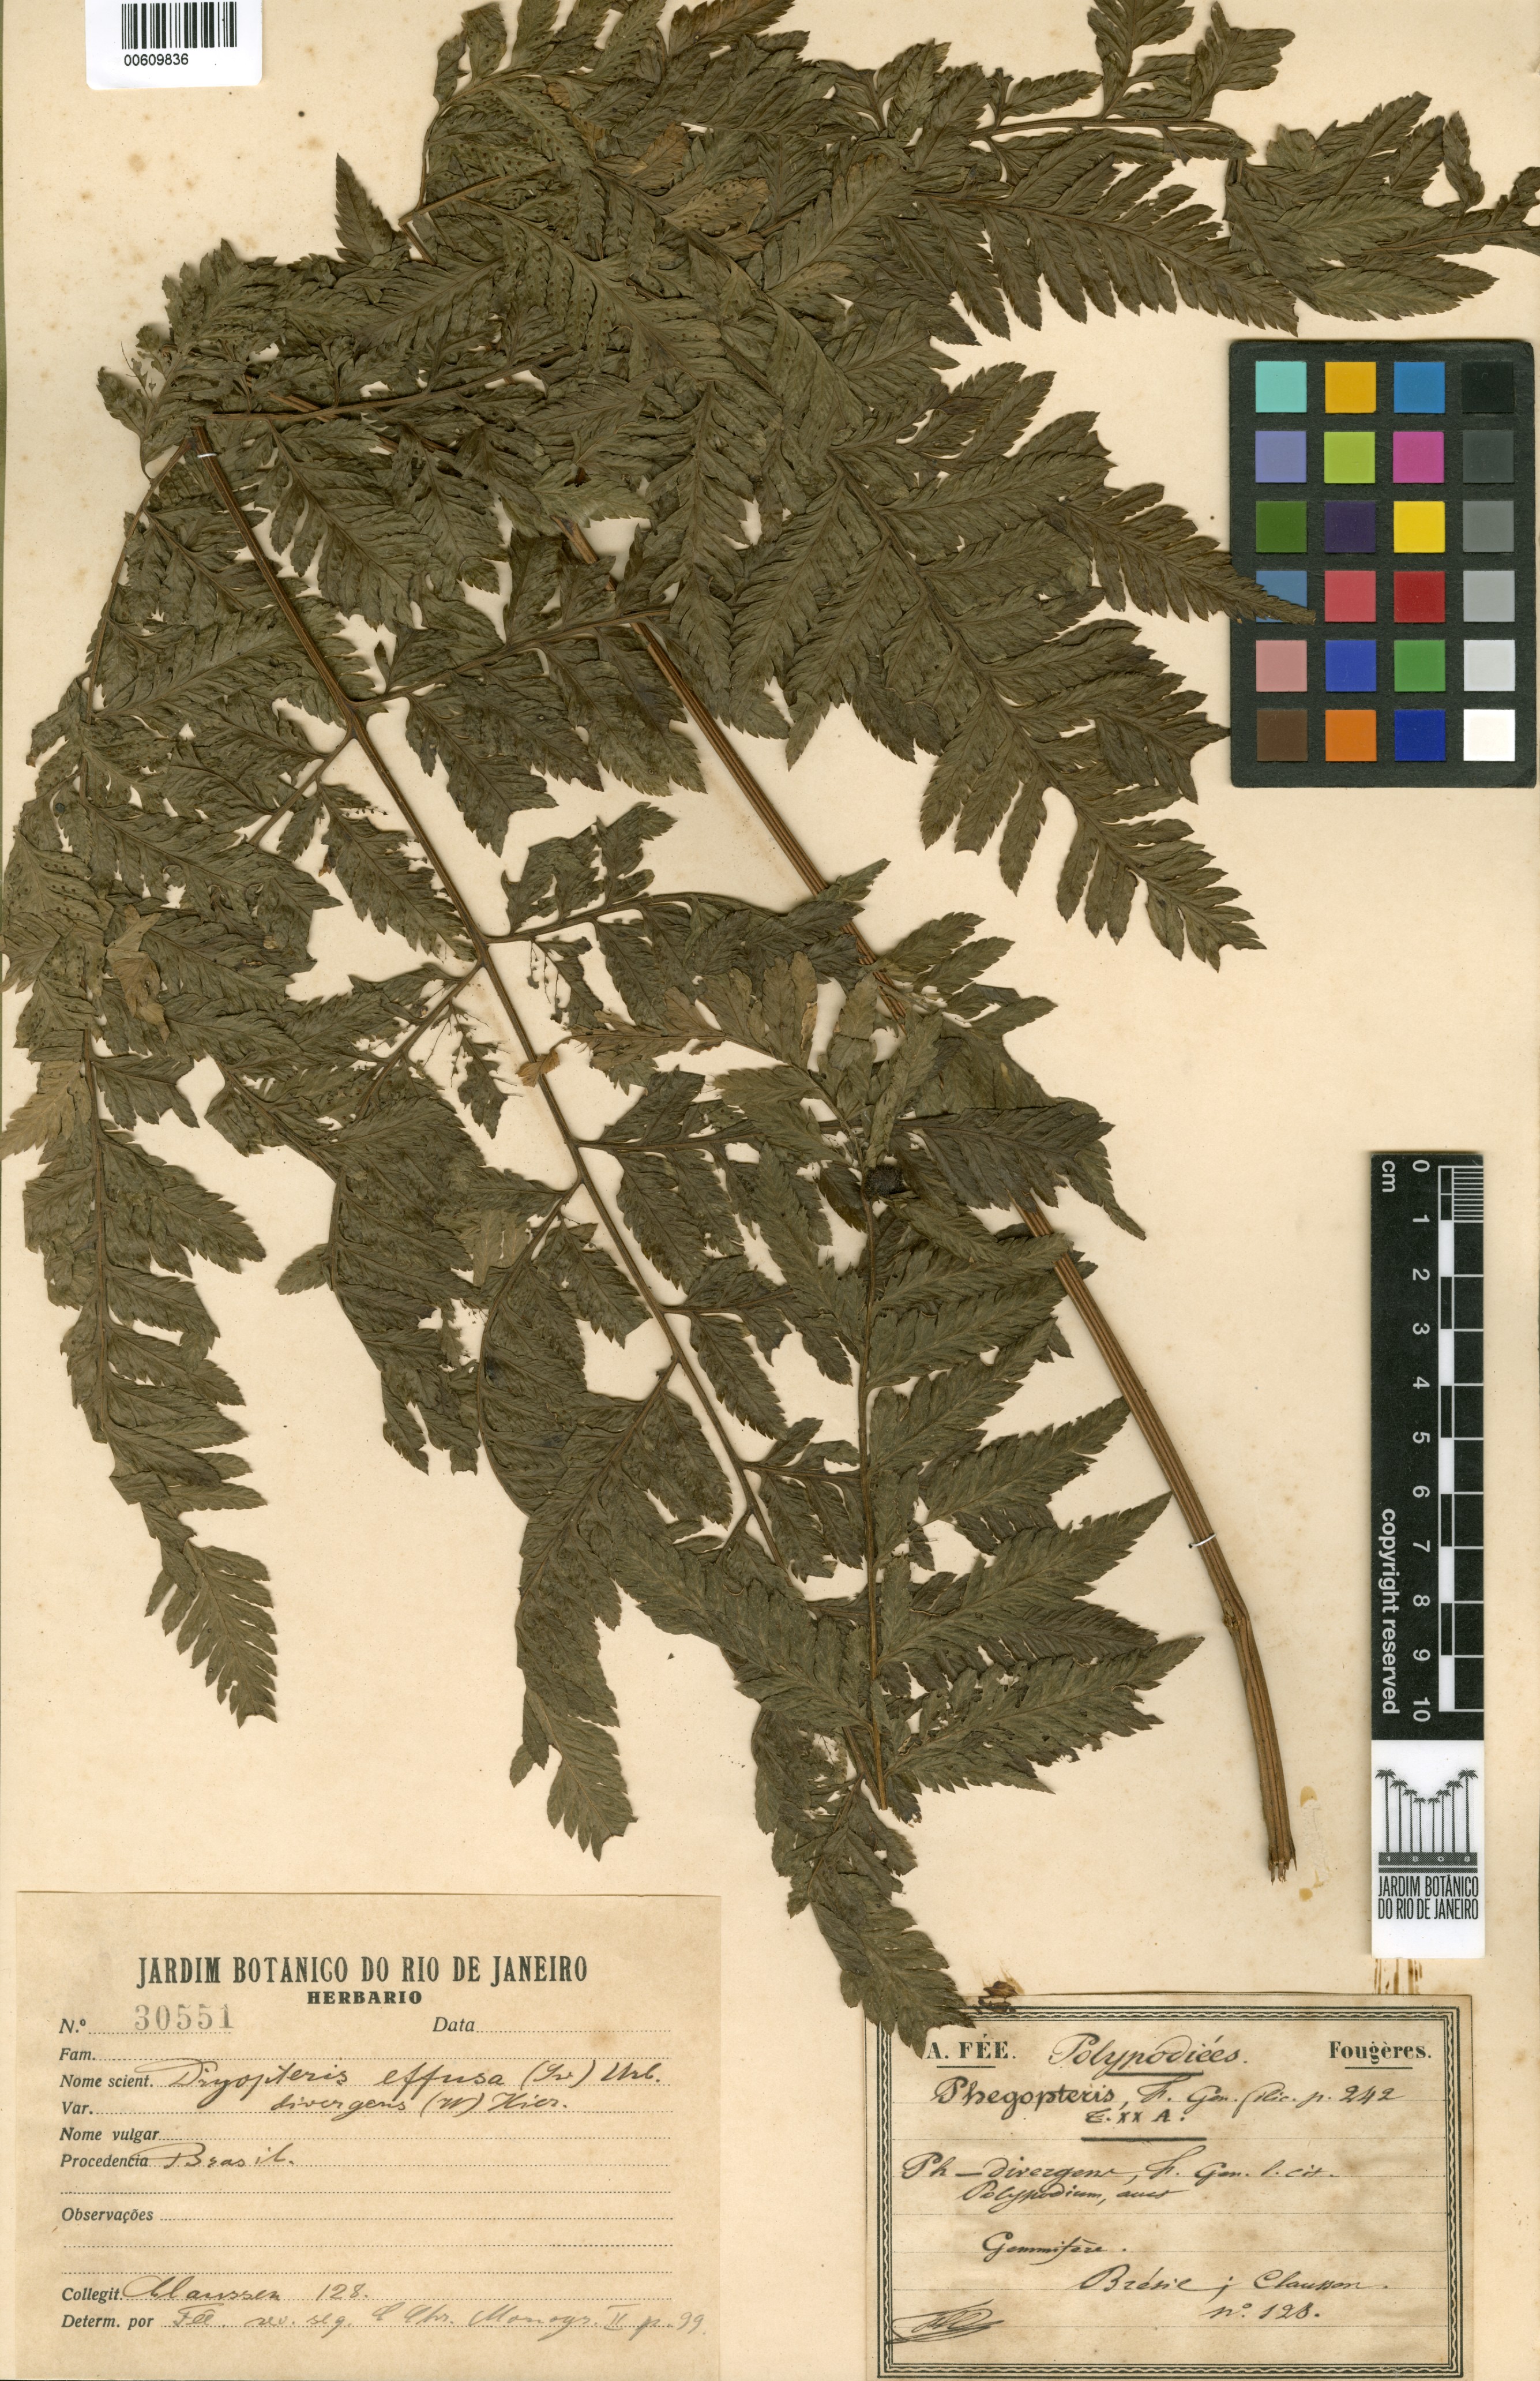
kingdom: Plantae
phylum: Tracheophyta
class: Polypodiopsida
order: Polypodiales
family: Dryopteridaceae
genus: Parapolystichum
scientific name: Parapolystichum effusum
